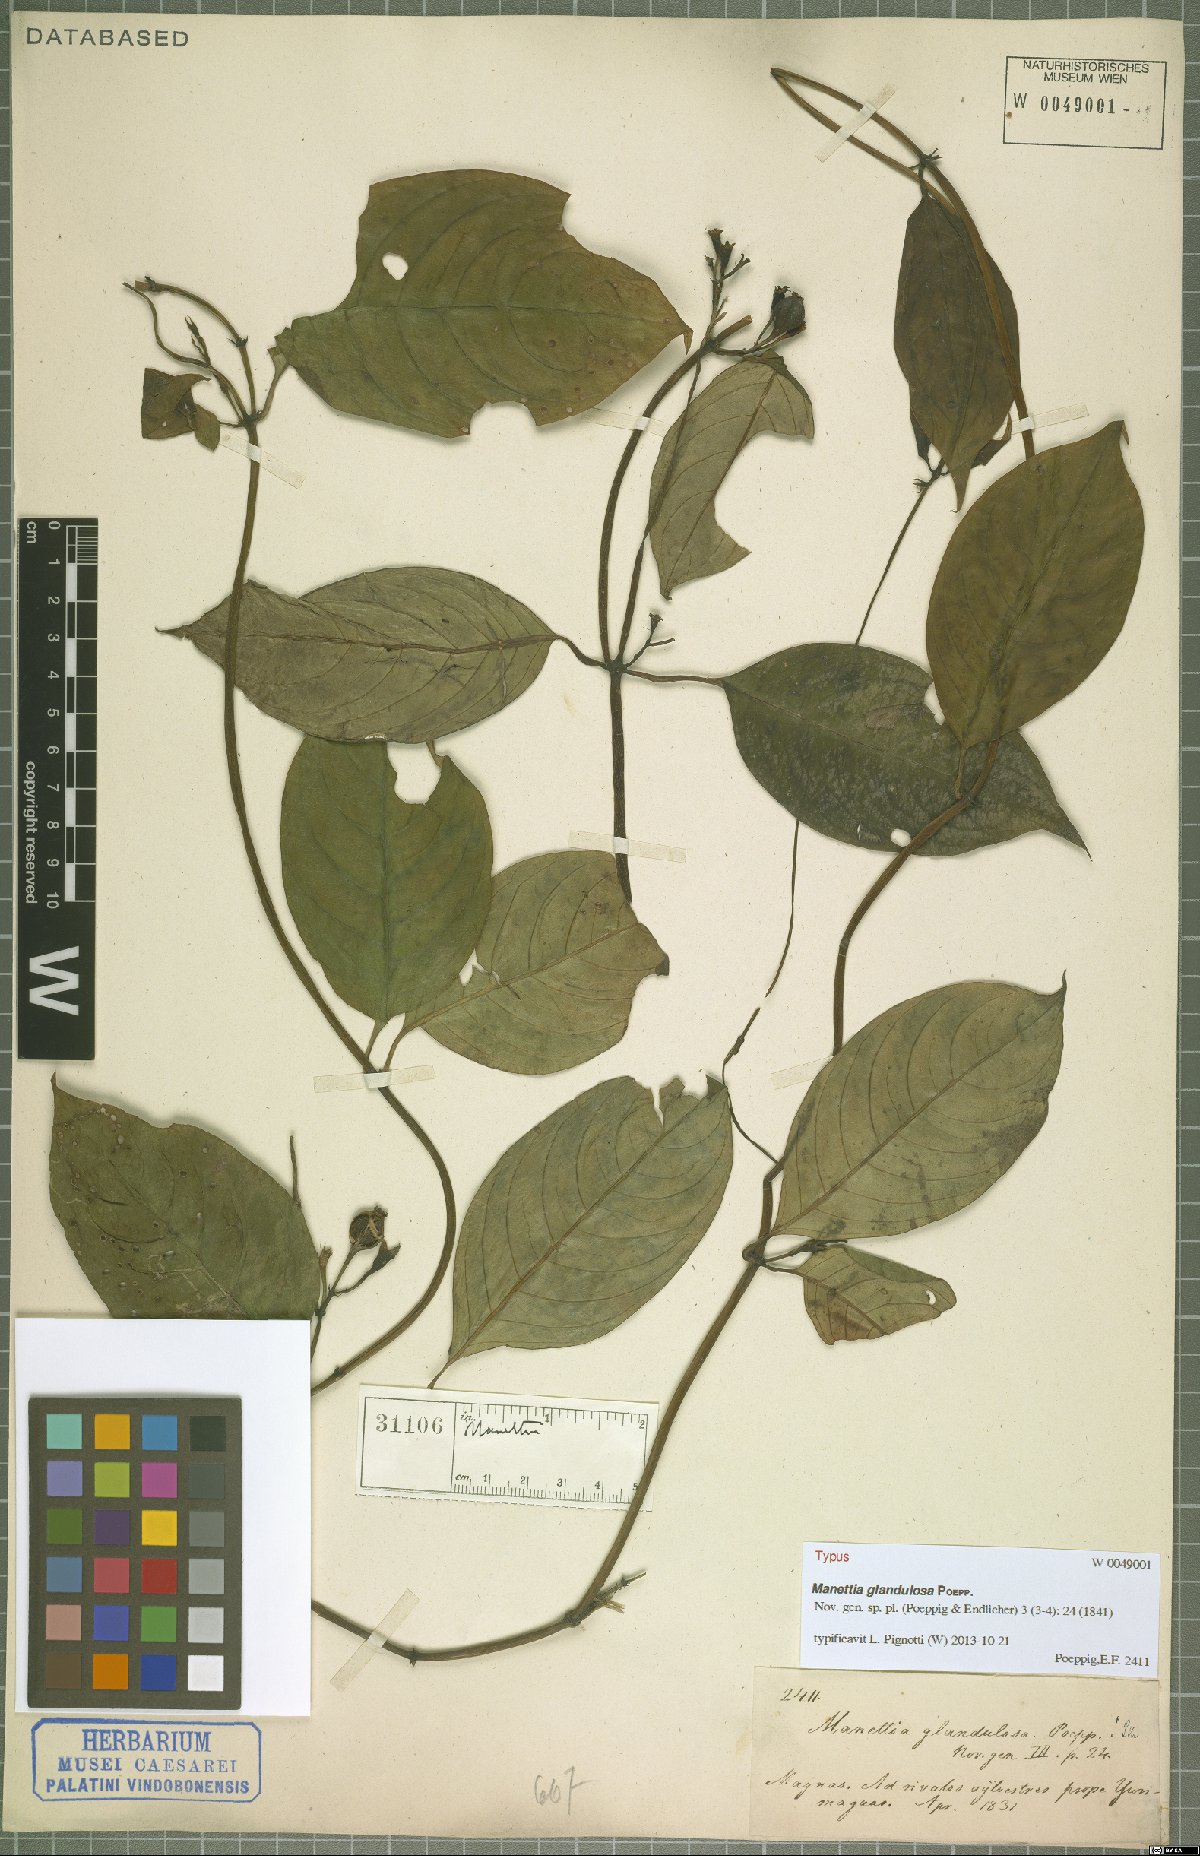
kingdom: Plantae
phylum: Tracheophyta
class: Magnoliopsida
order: Gentianales
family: Rubiaceae
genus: Manettia
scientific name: Manettia glandulosa
